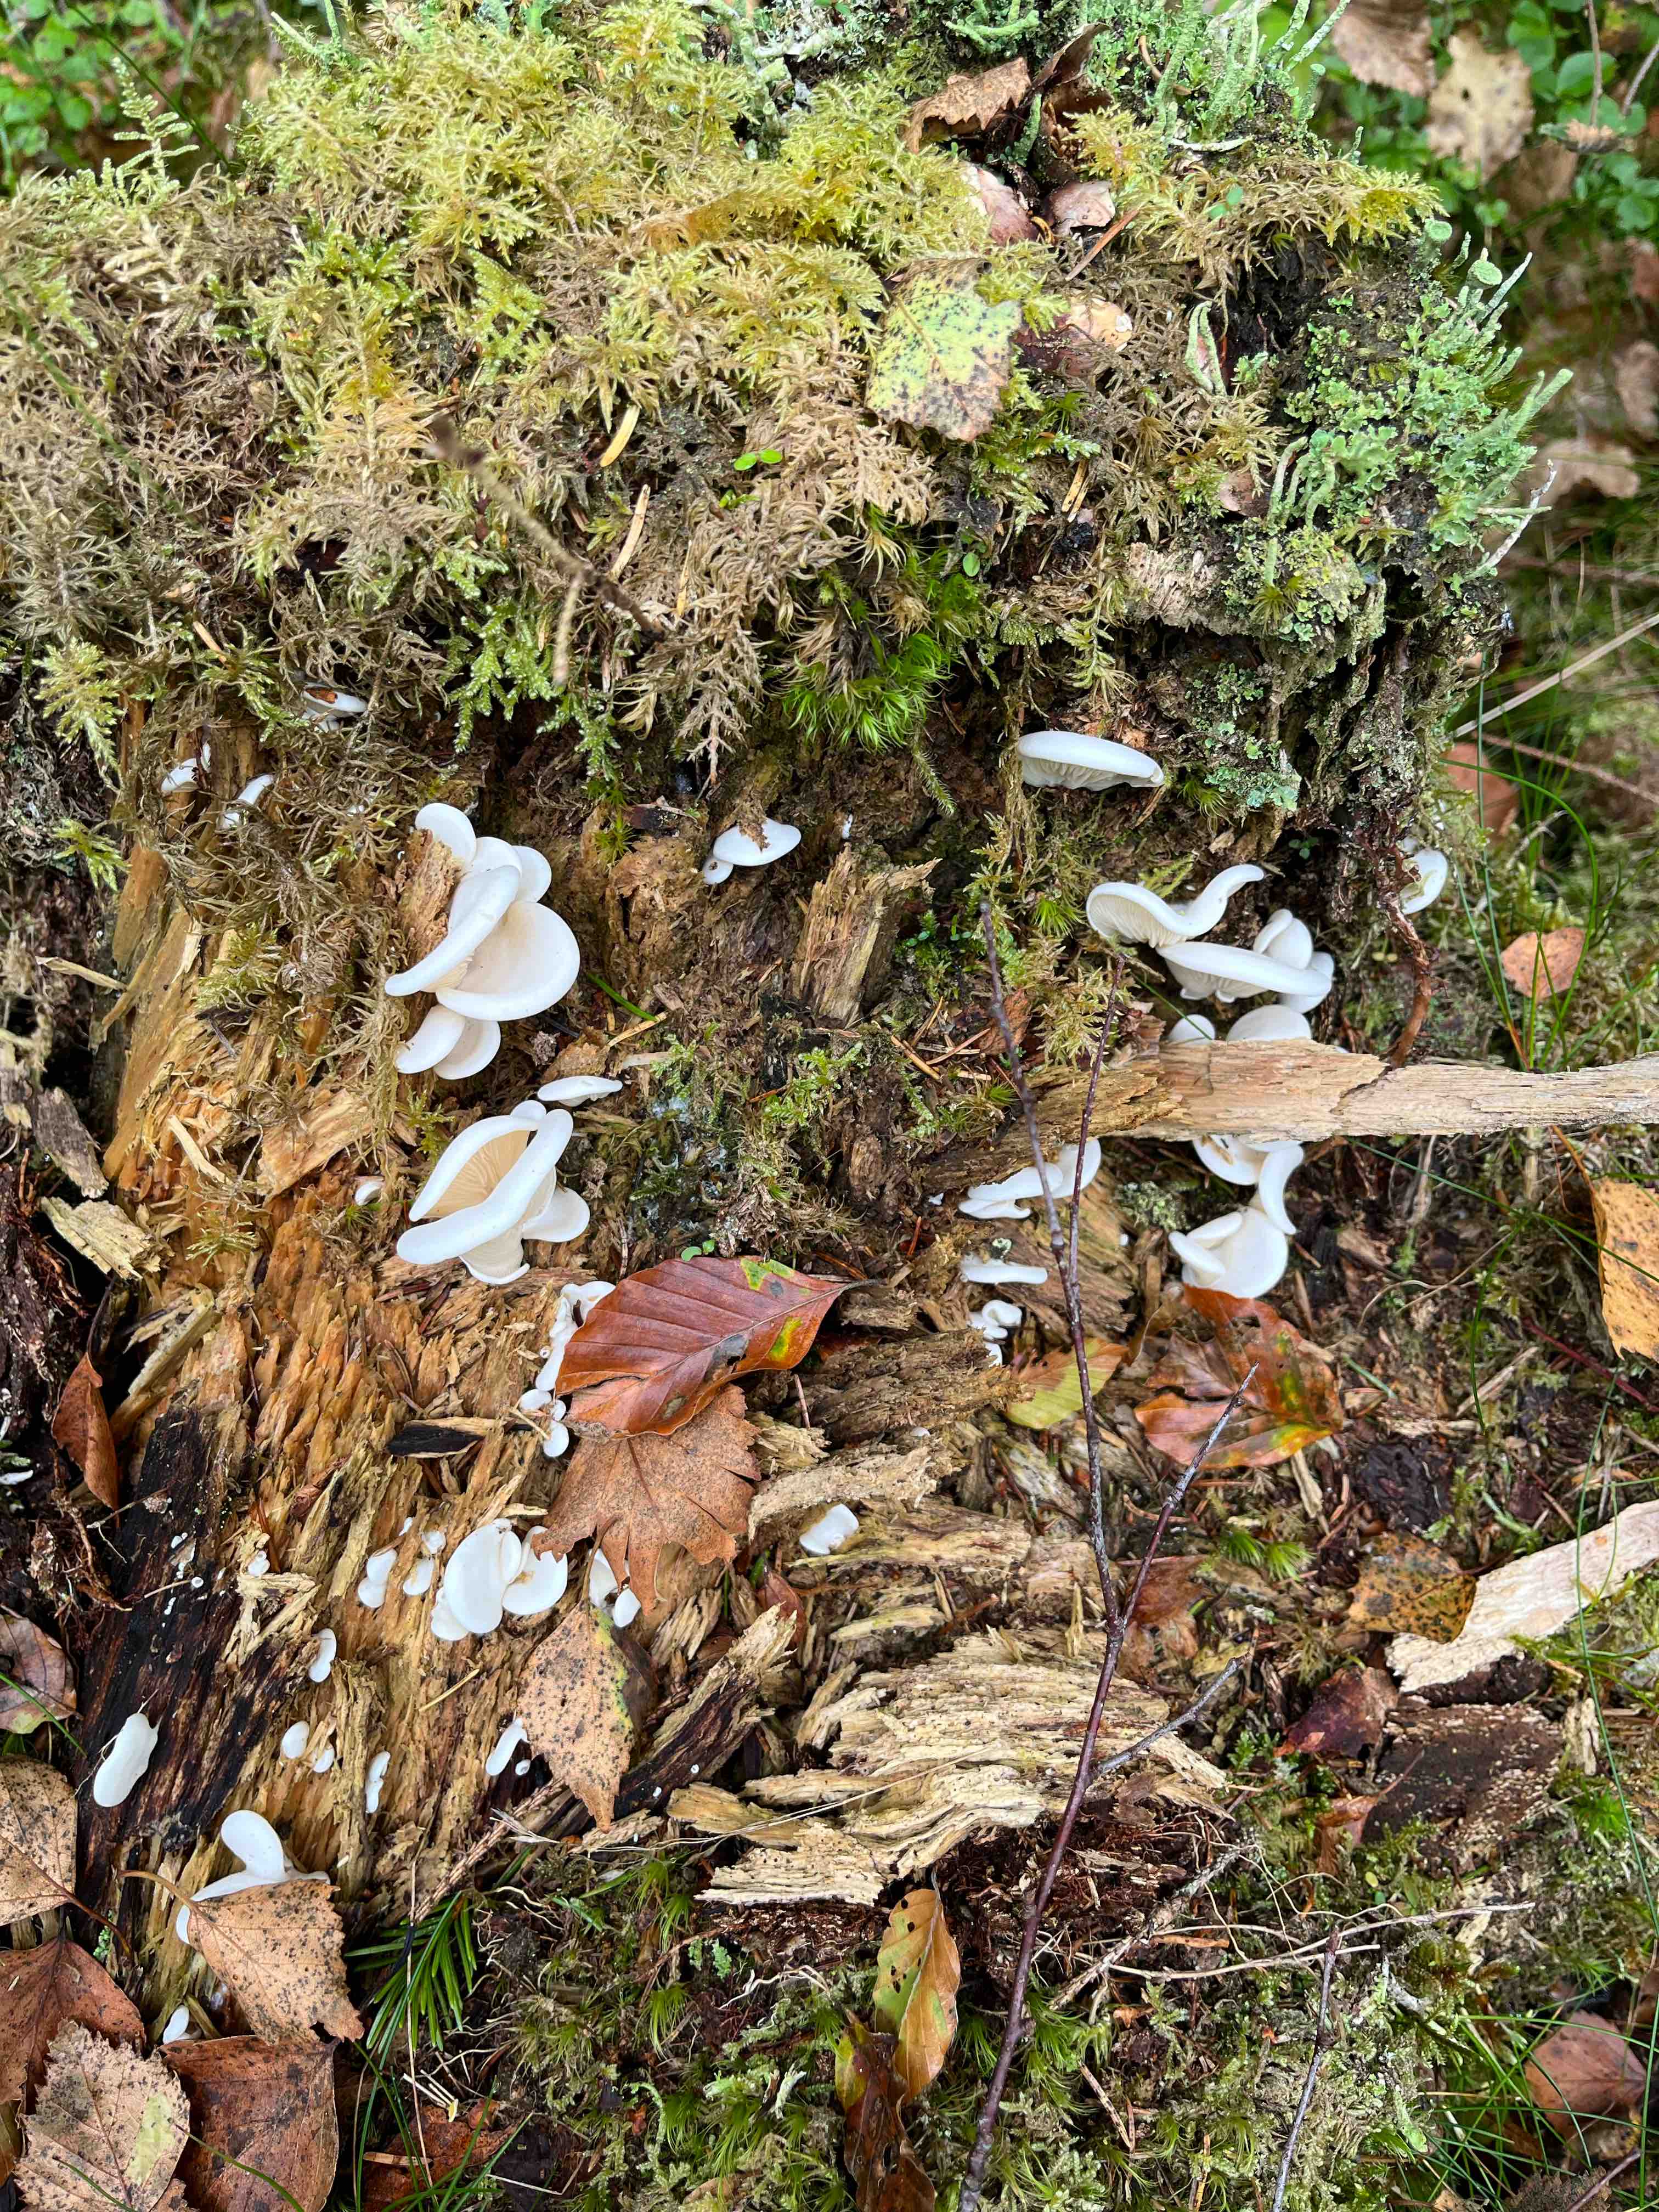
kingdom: Fungi
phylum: Basidiomycota
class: Agaricomycetes
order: Agaricales
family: Marasmiaceae
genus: Pleurocybella
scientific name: Pleurocybella porrigens
